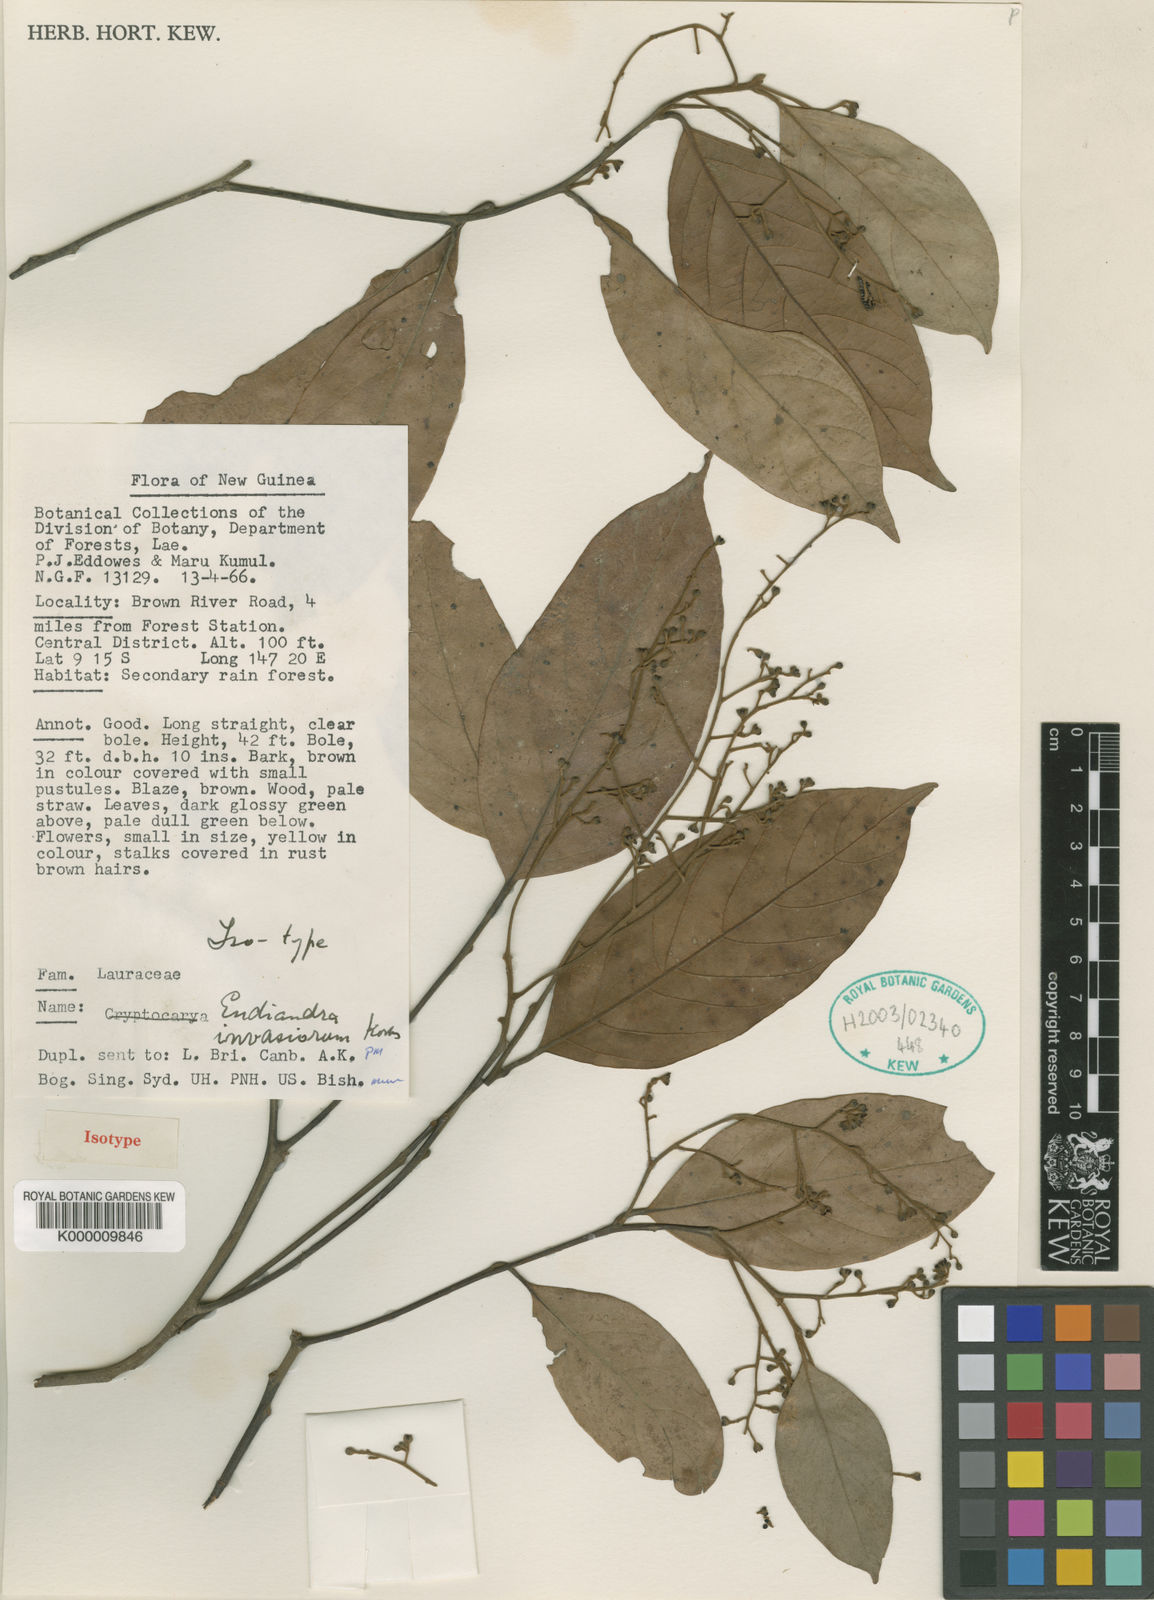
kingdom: Plantae
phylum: Tracheophyta
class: Magnoliopsida
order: Laurales
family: Lauraceae
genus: Endiandra
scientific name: Endiandra invasiorum
